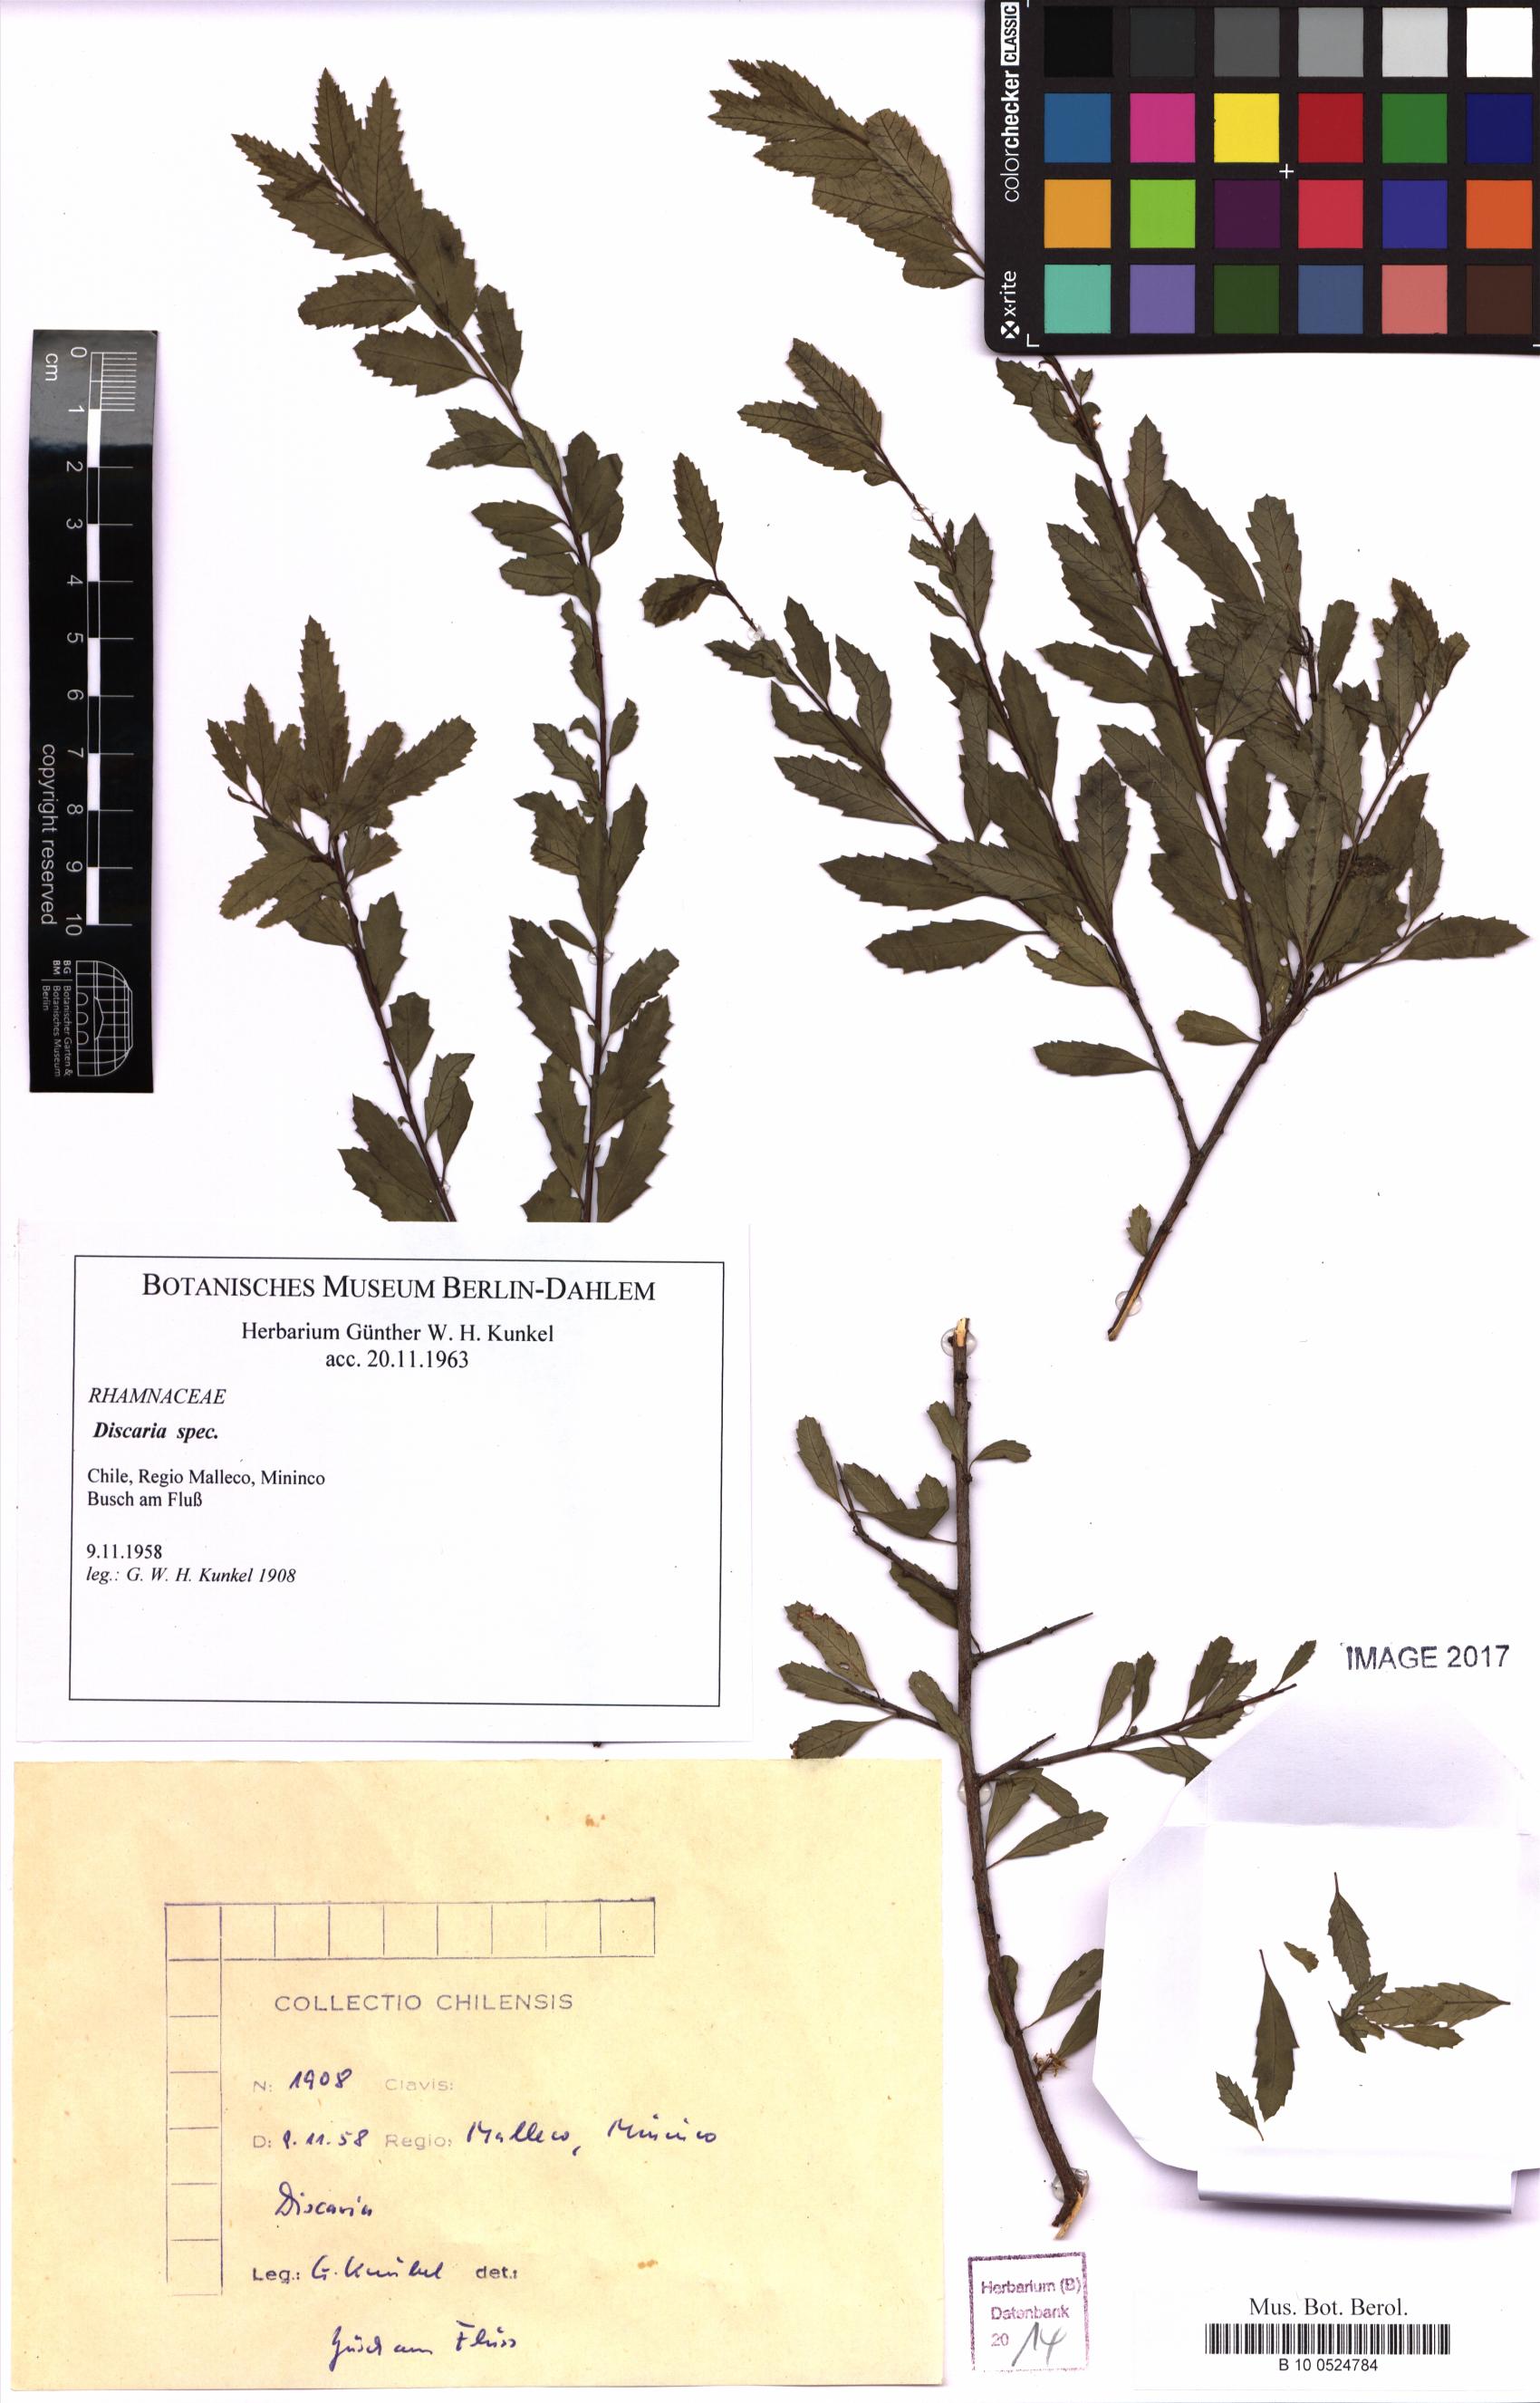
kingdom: Plantae
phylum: Tracheophyta
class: Magnoliopsida
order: Rosales
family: Rhamnaceae
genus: Discaria
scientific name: Discaria
